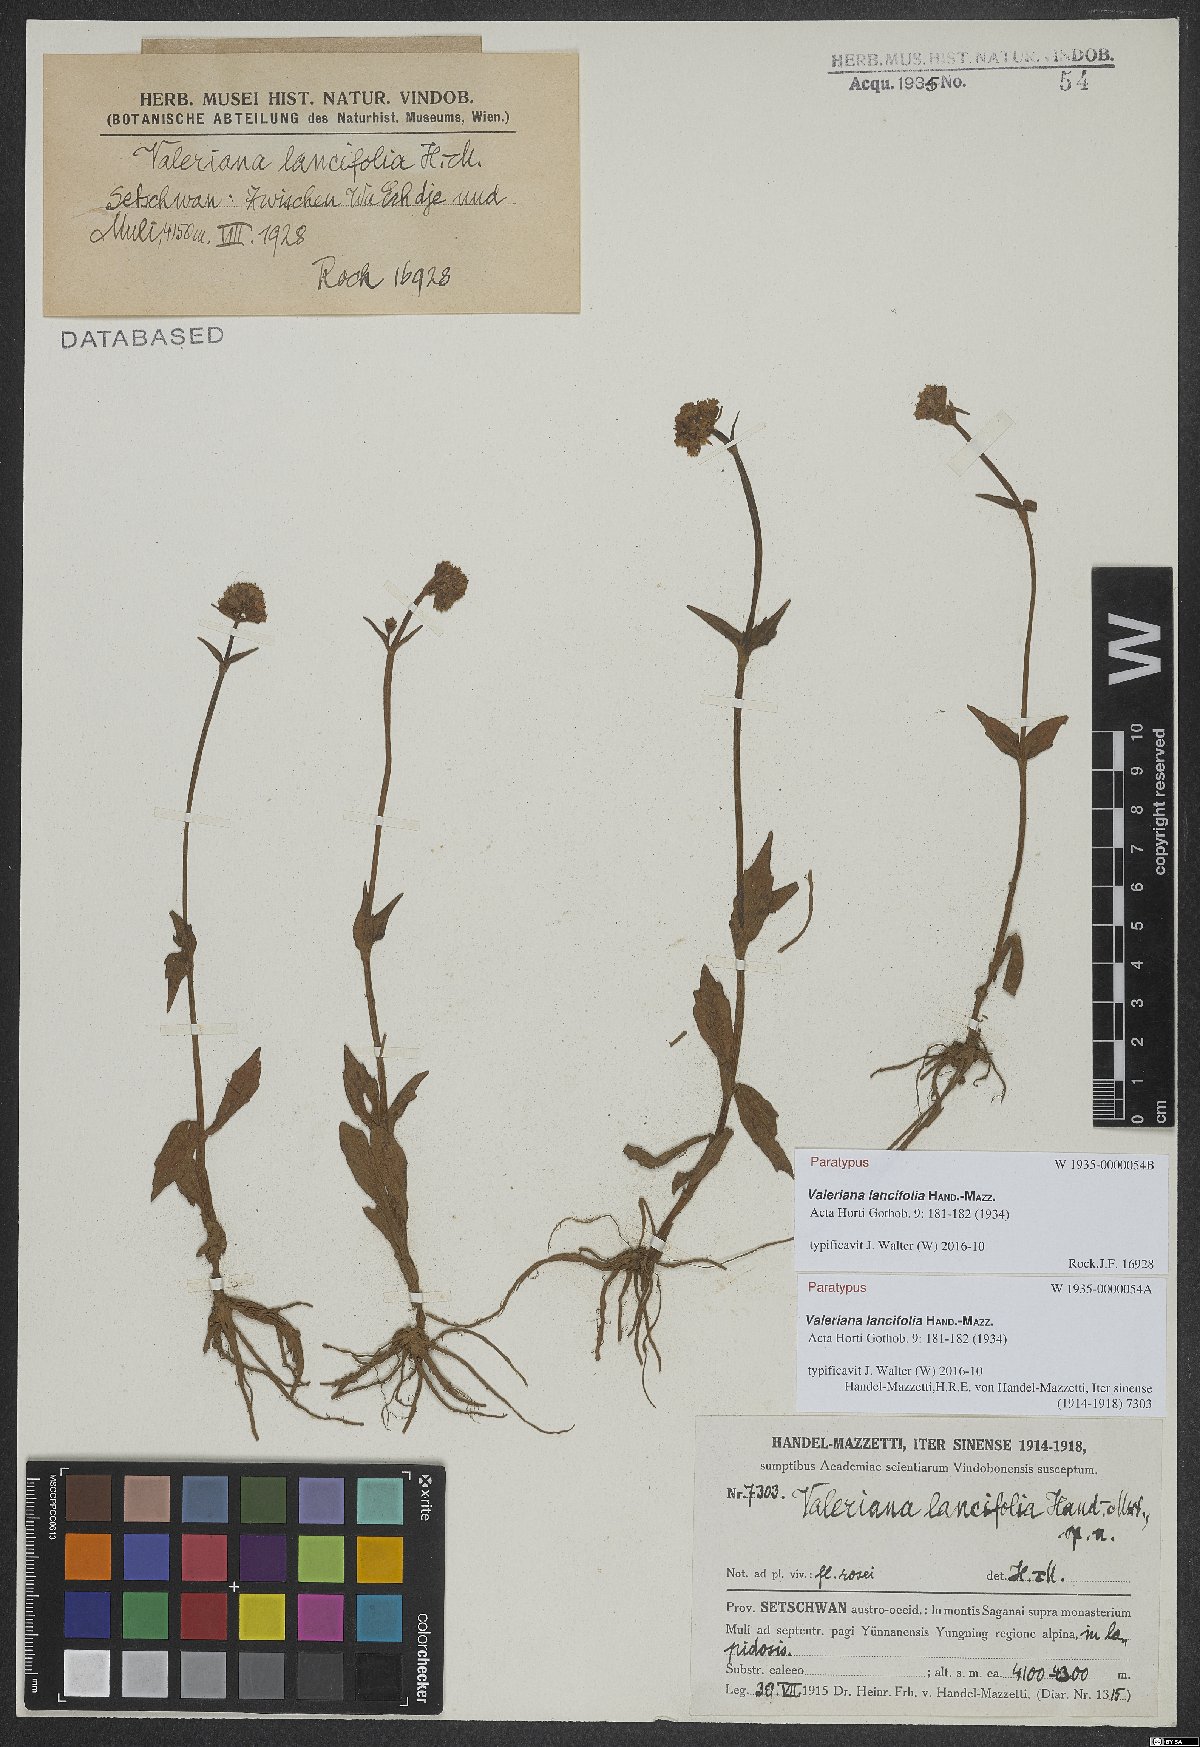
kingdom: Plantae
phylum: Tracheophyta
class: Magnoliopsida
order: Dipsacales
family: Caprifoliaceae
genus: Valeriana
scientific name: Valeriana lancifolia
